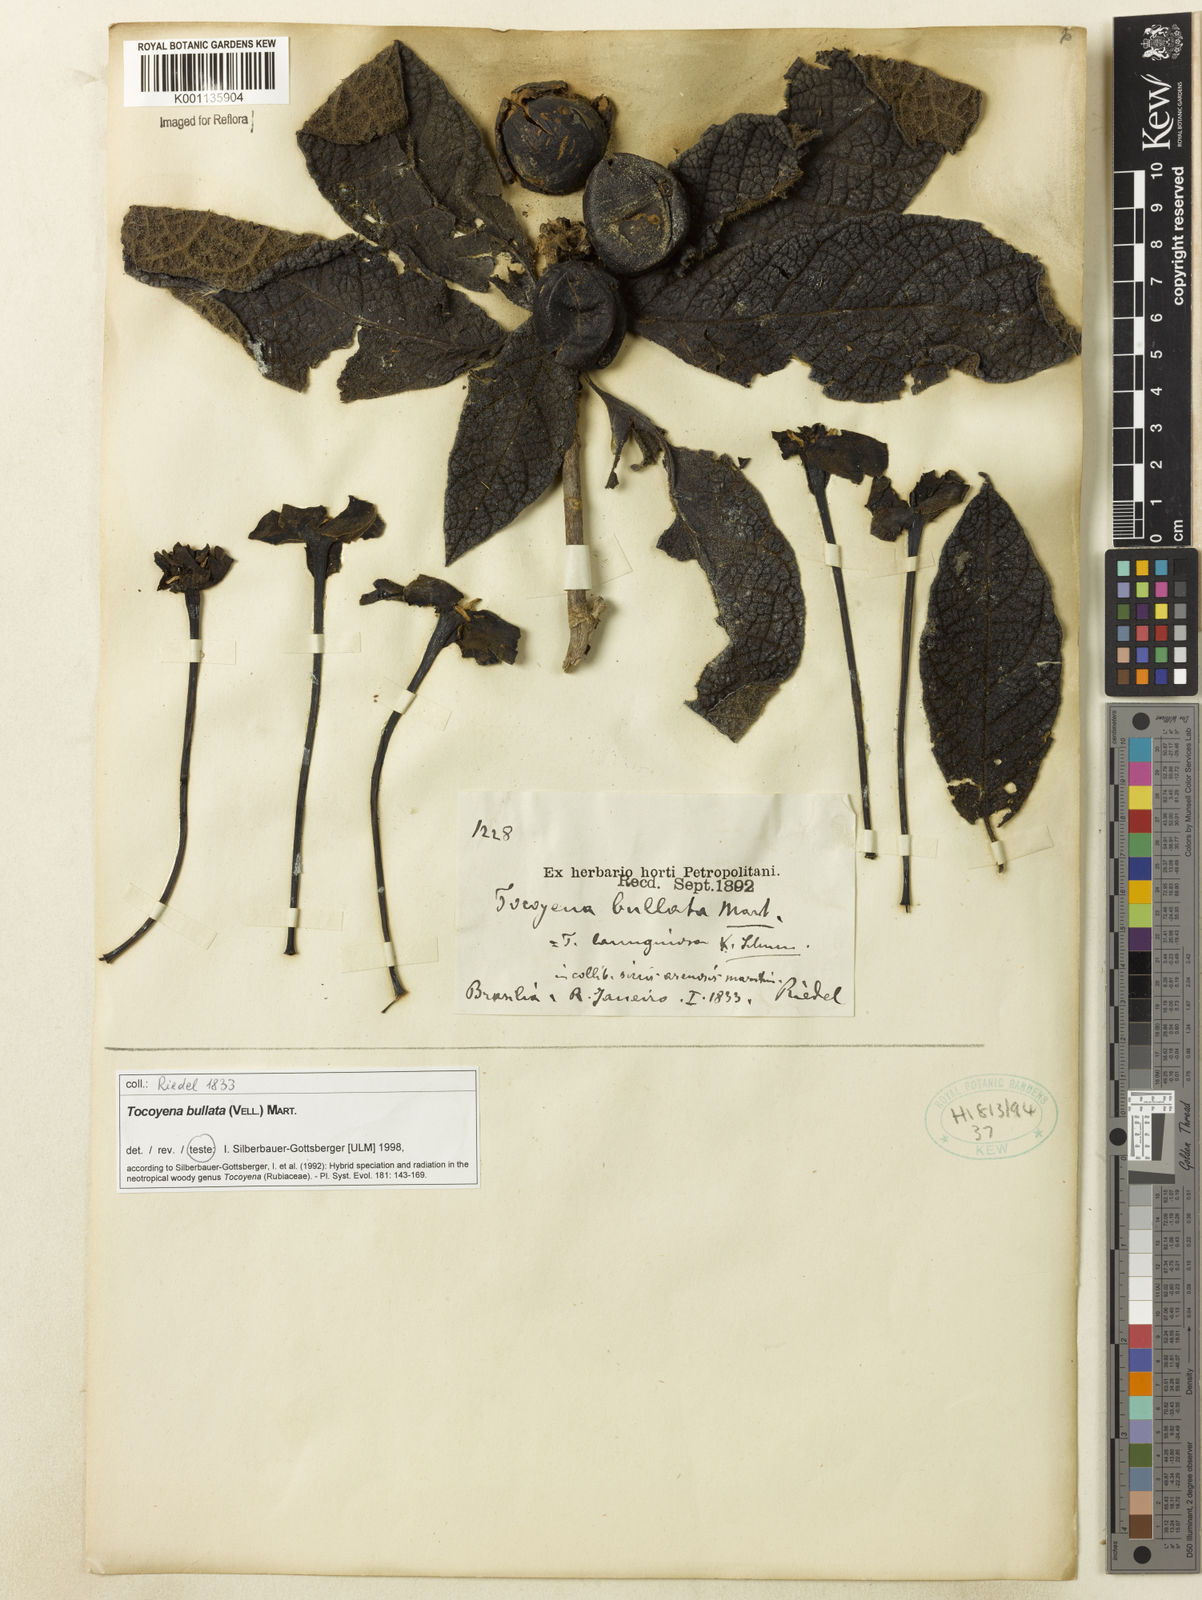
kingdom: Plantae
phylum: Tracheophyta
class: Magnoliopsida
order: Gentianales
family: Rubiaceae
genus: Tocoyena
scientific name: Tocoyena bullata
